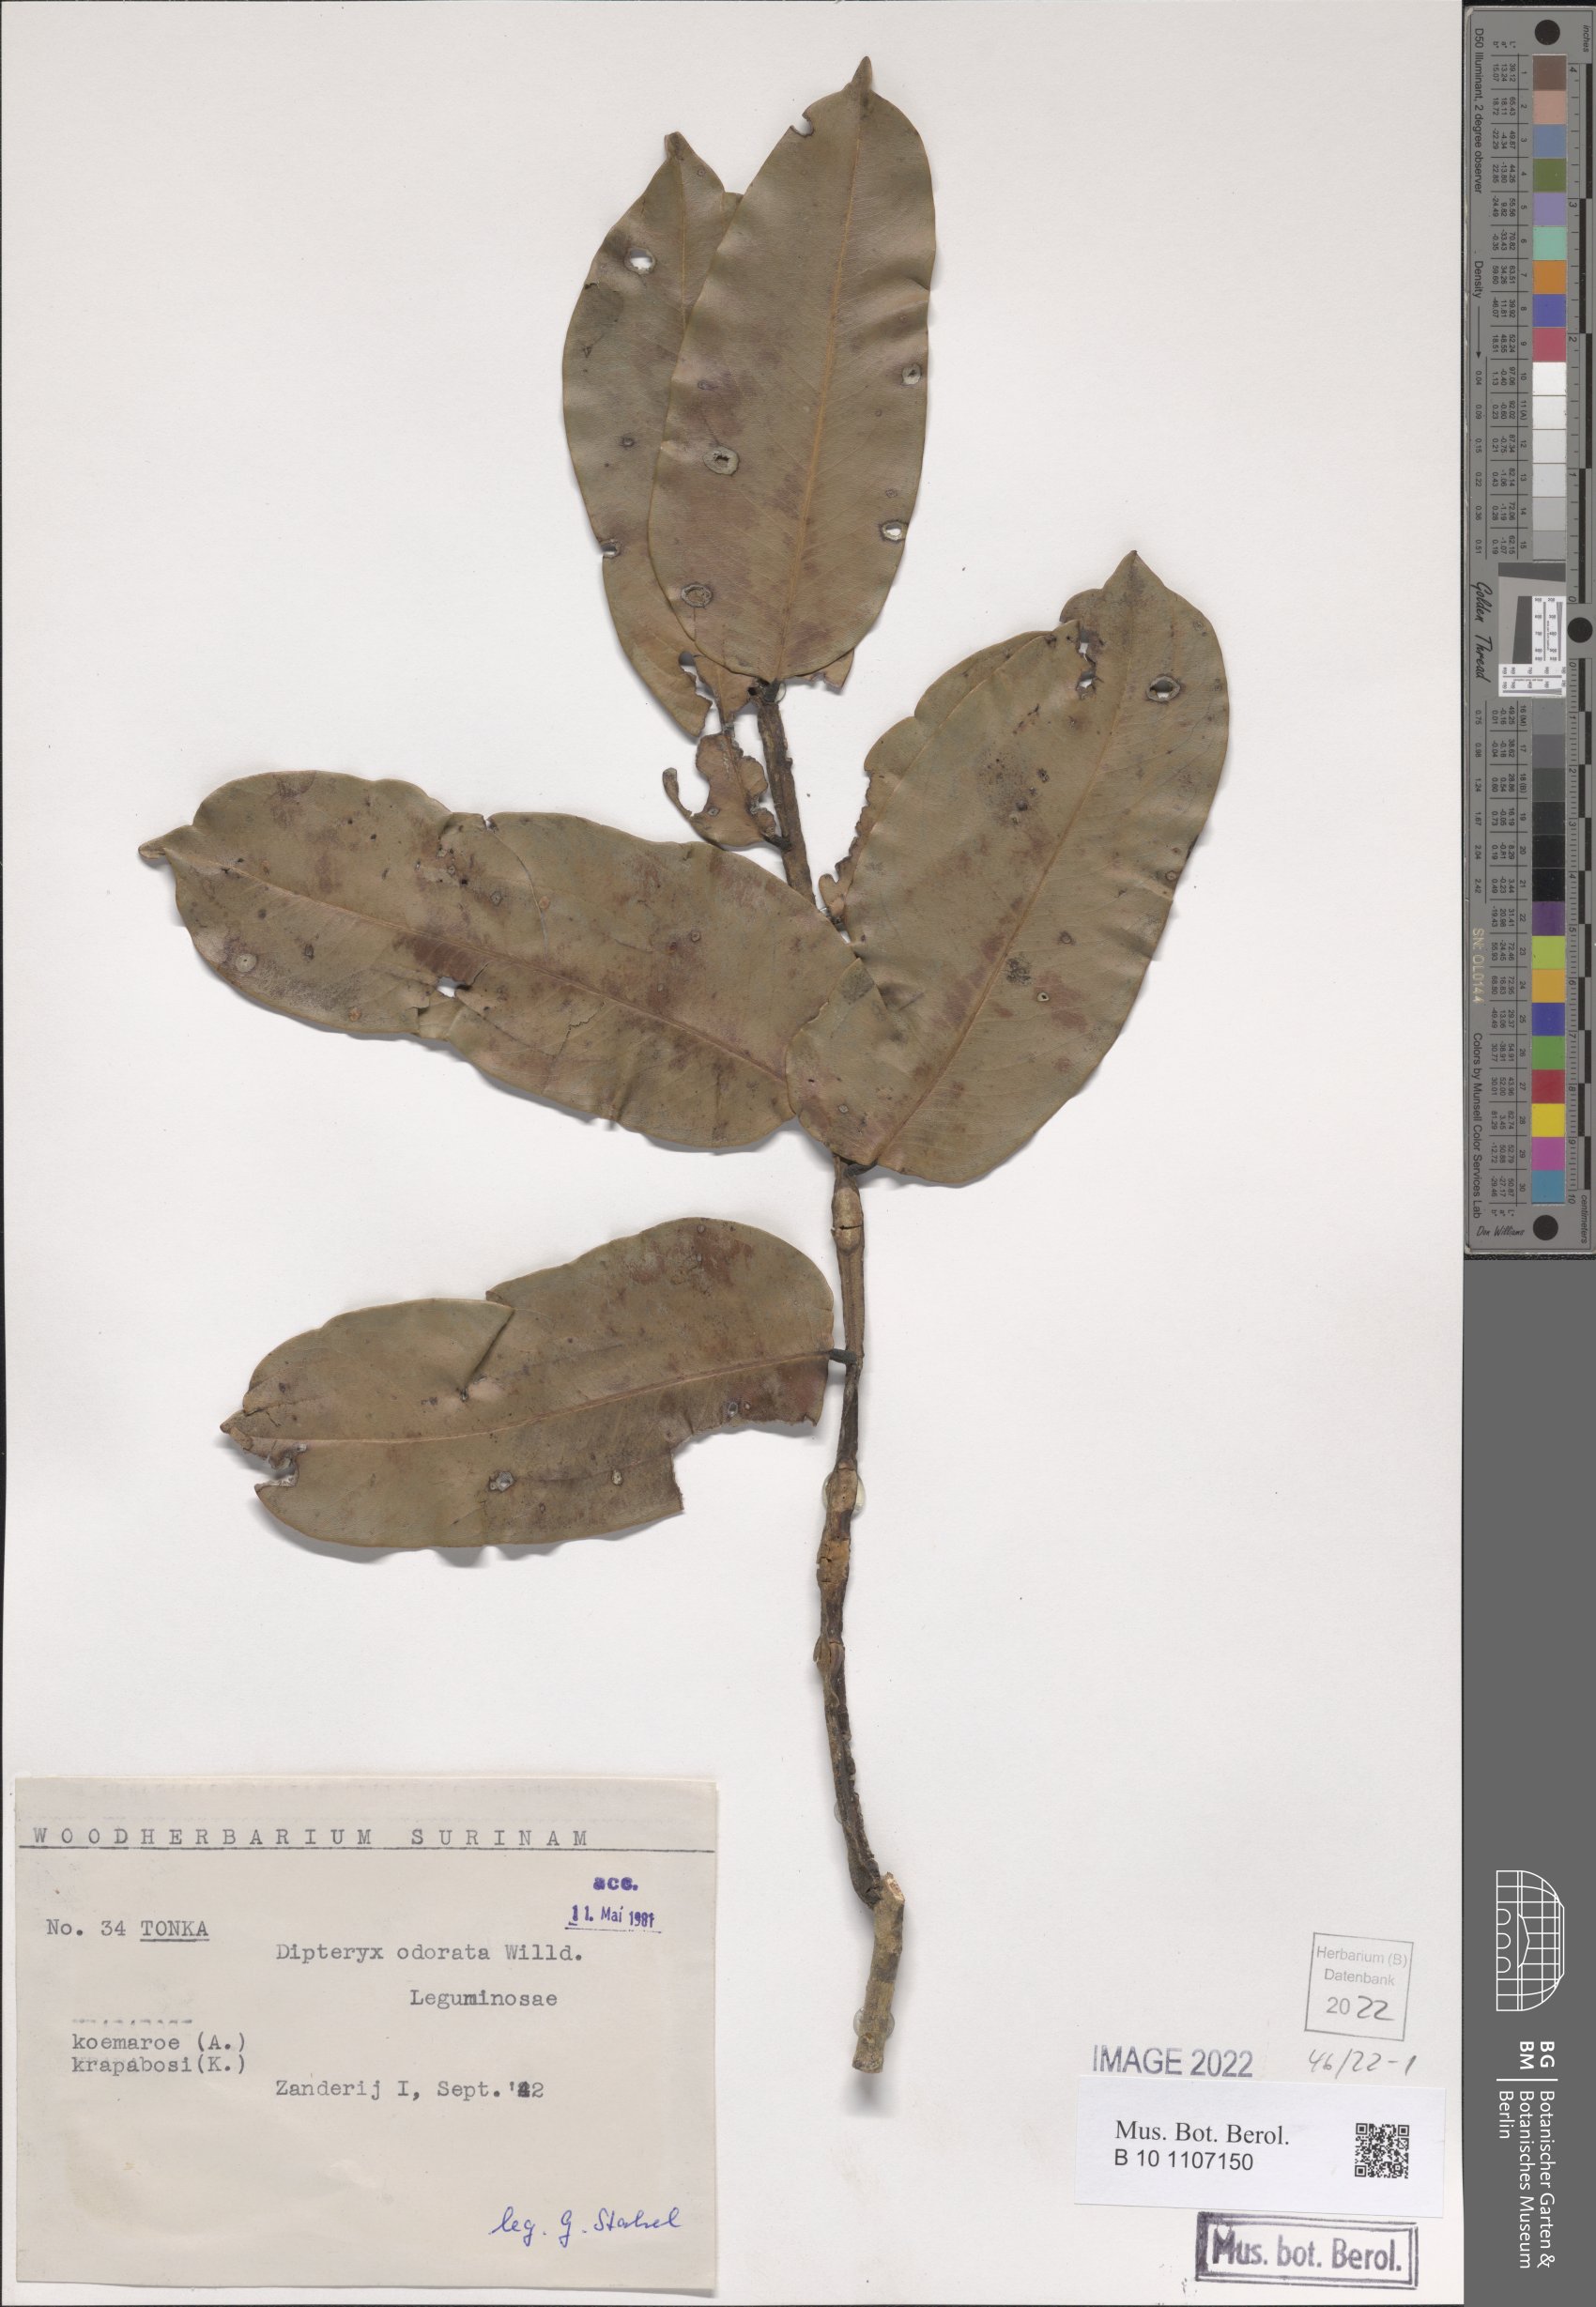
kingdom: Plantae
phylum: Tracheophyta
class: Magnoliopsida
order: Fabales
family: Fabaceae
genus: Dipteryx
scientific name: Dipteryx odorata
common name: Tonka
